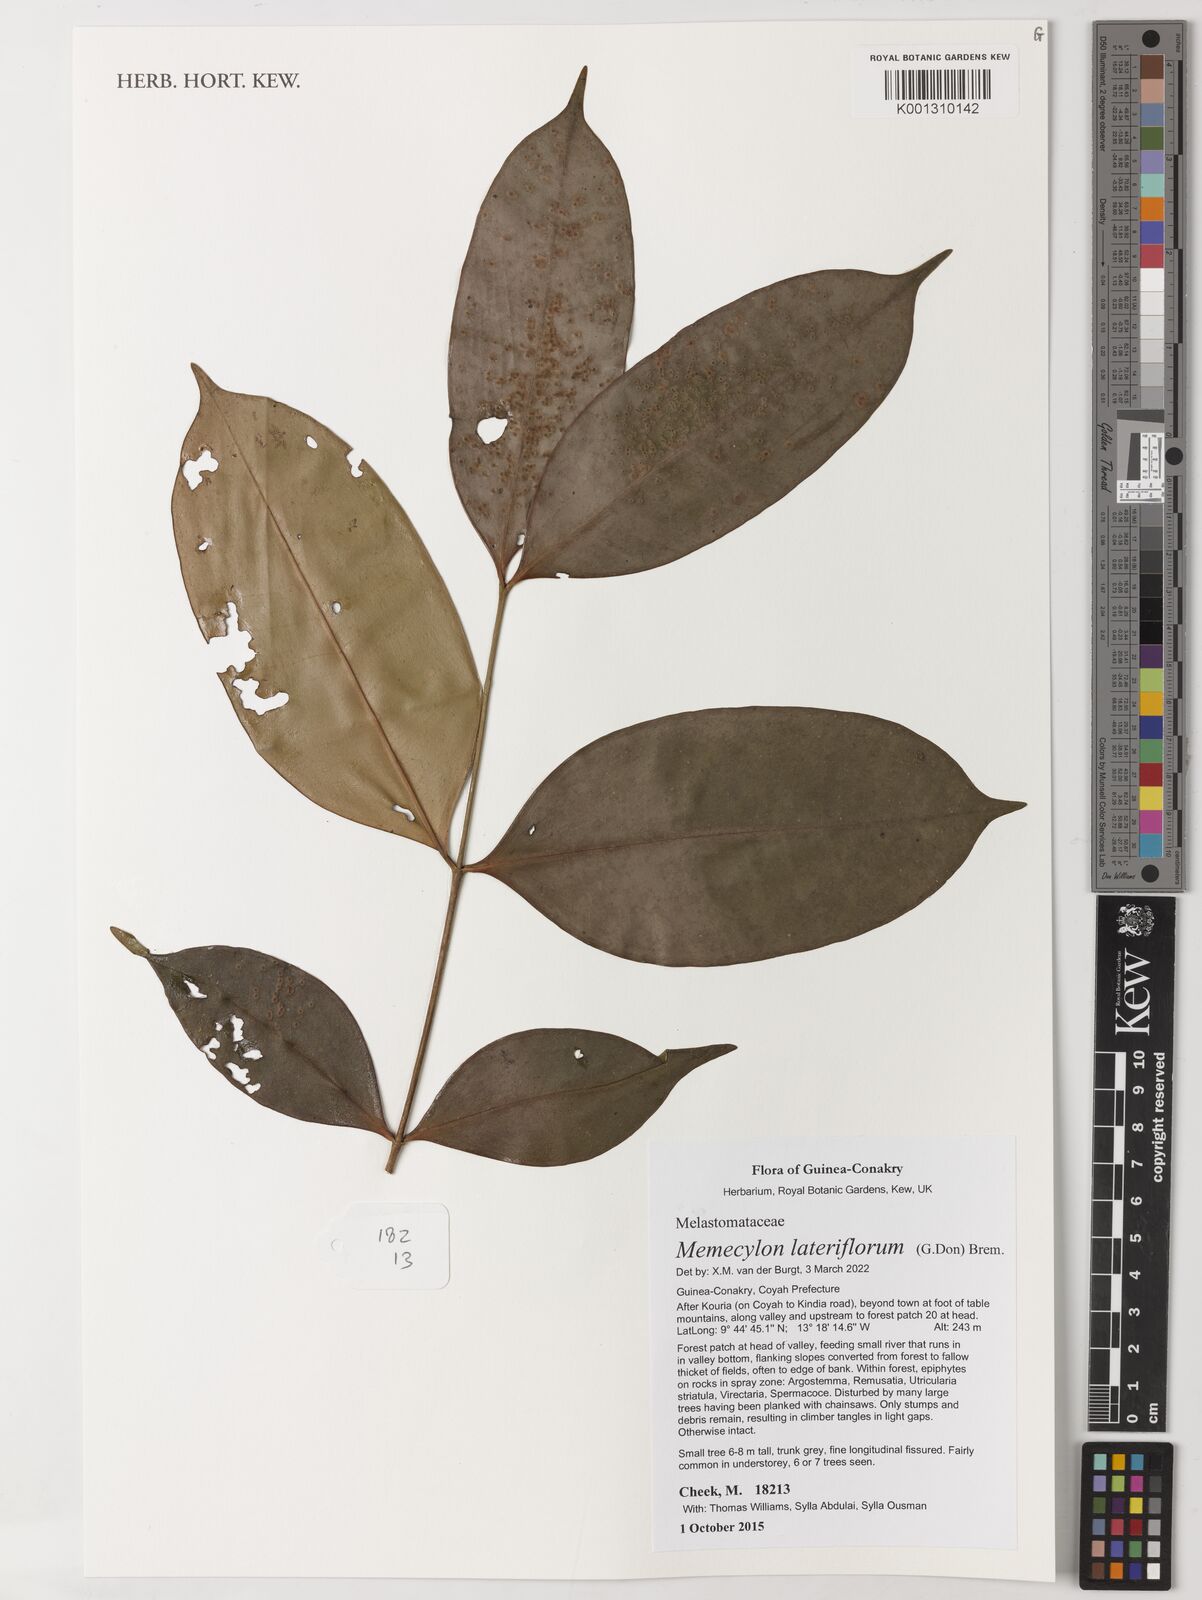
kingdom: Plantae
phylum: Tracheophyta
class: Magnoliopsida
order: Myrtales
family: Melastomataceae
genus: Memecylon
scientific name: Memecylon lateriflorum
